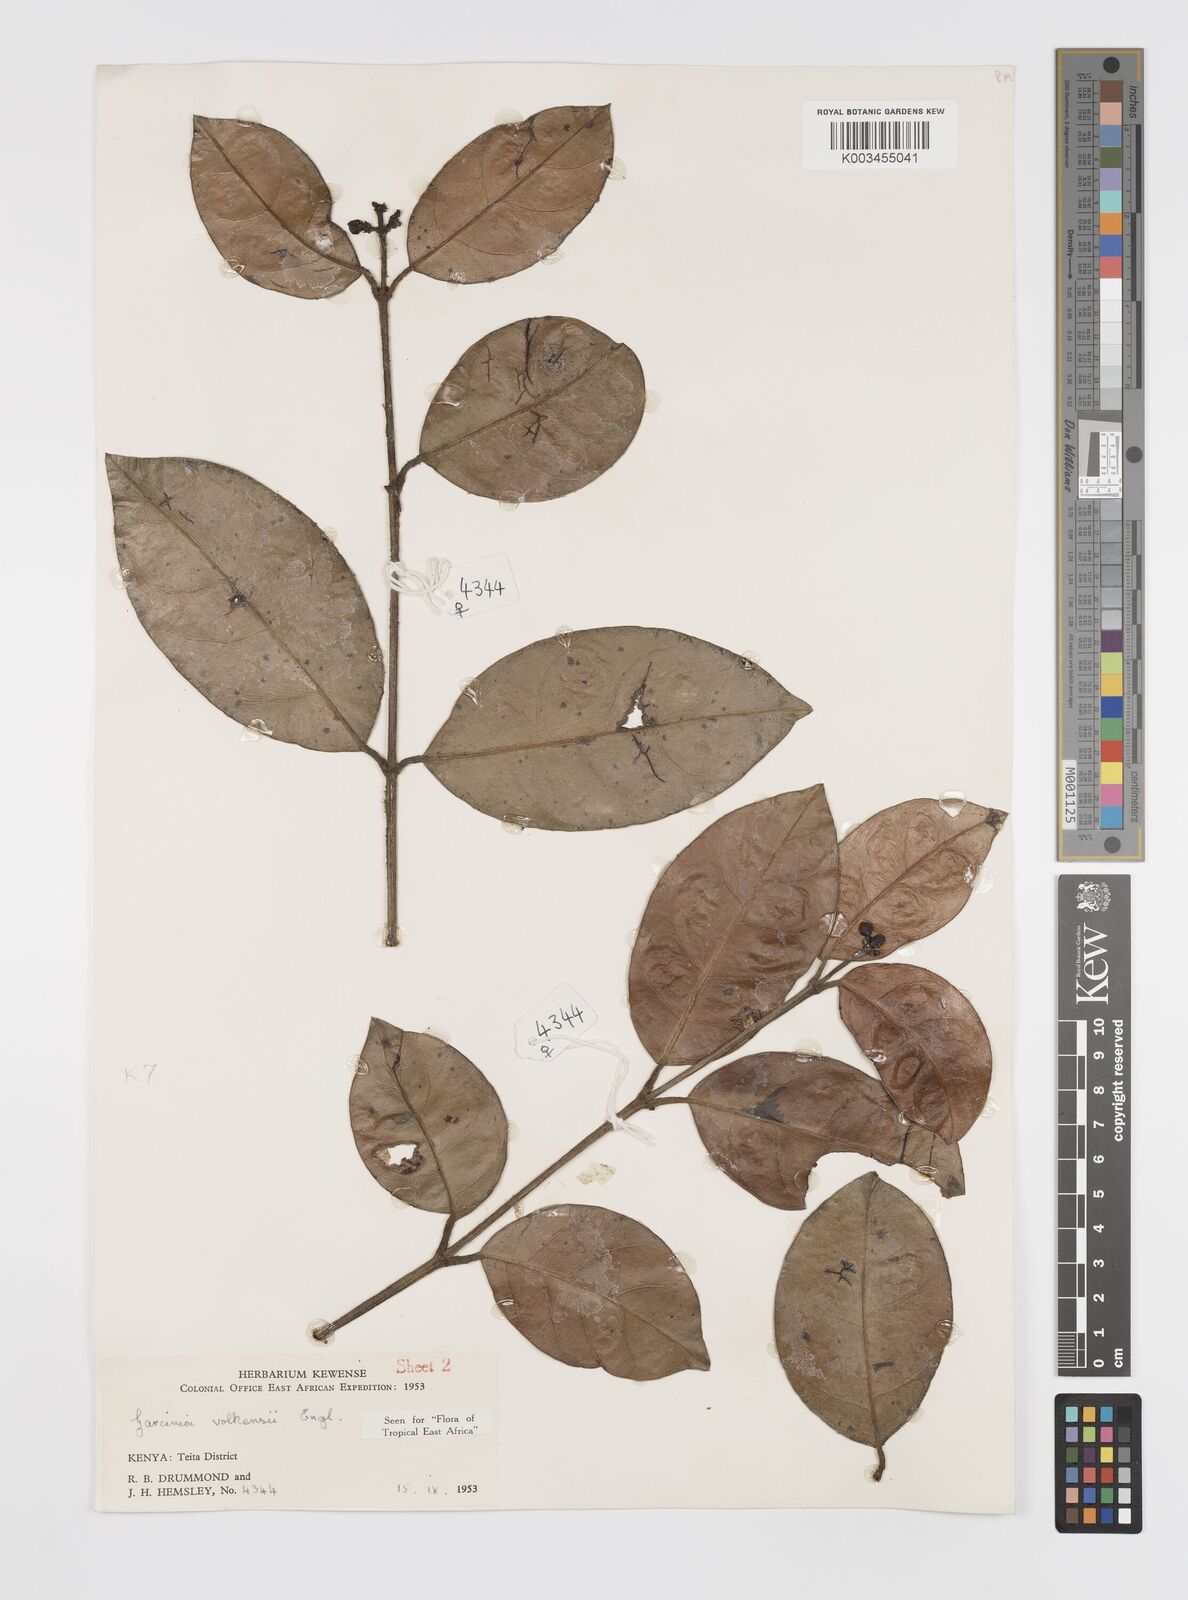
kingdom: Plantae
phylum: Tracheophyta
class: Magnoliopsida
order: Malpighiales
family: Clusiaceae
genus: Garcinia
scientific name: Garcinia volkensii
